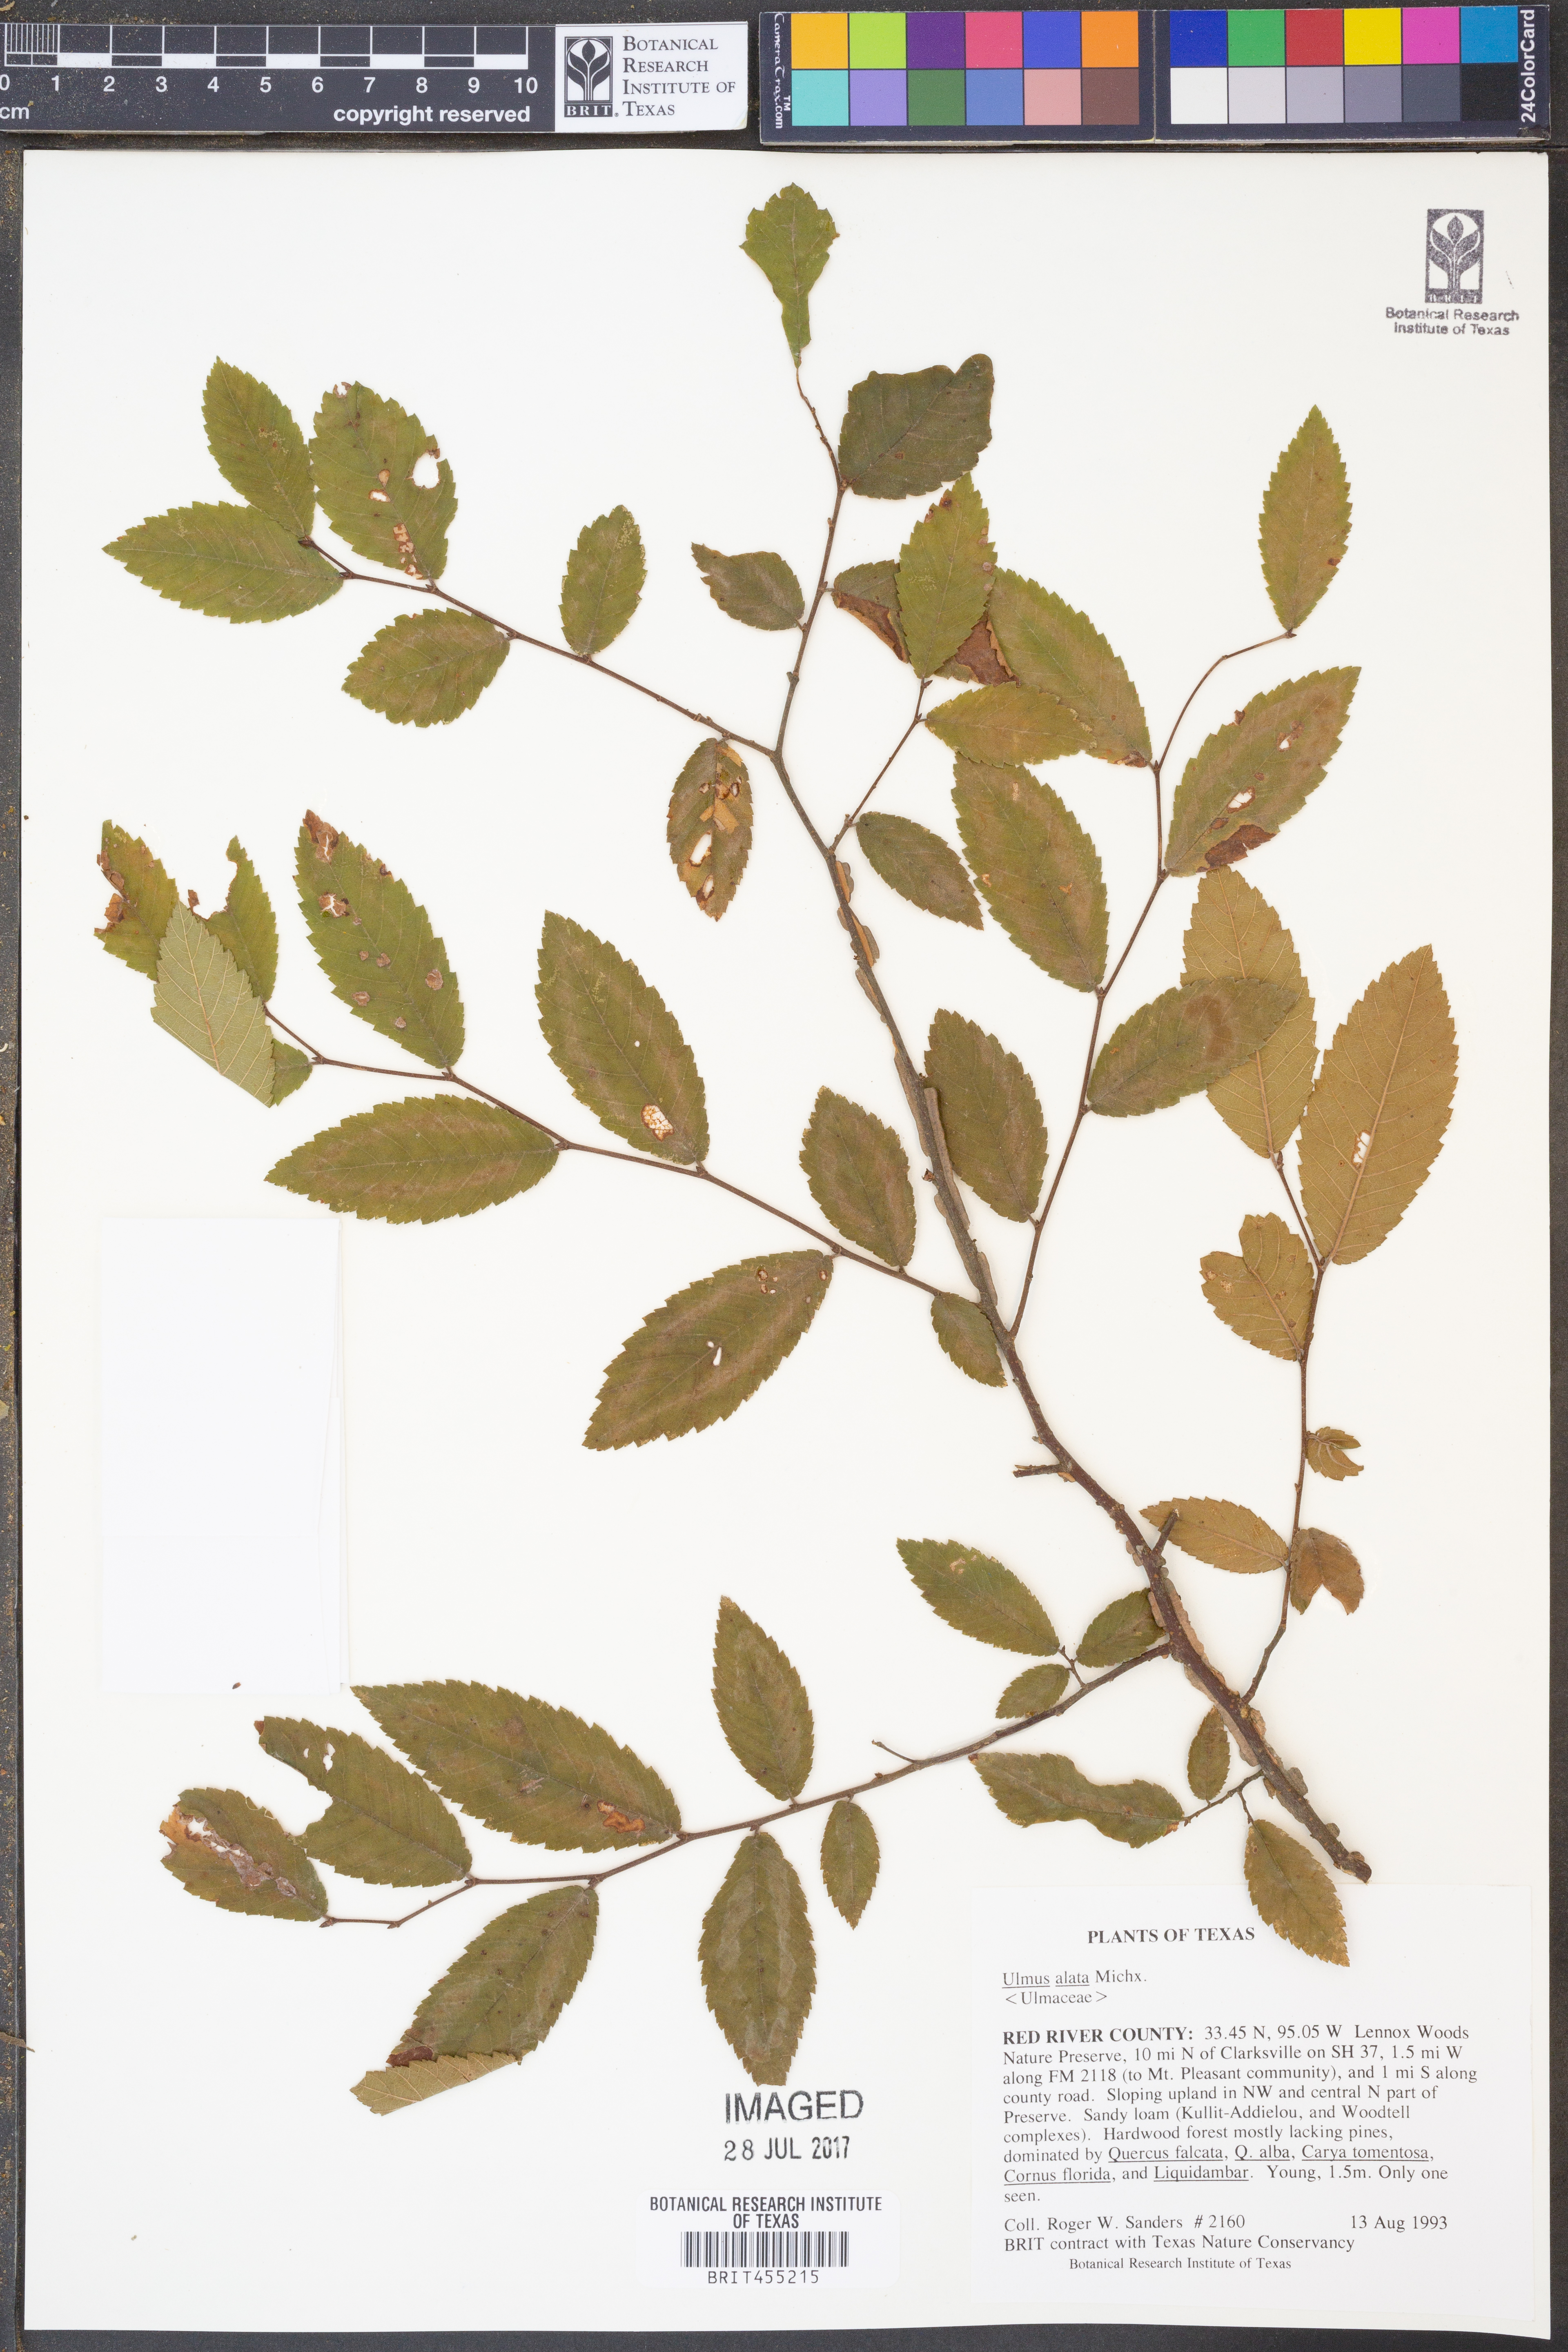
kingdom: Plantae
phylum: Tracheophyta
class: Magnoliopsida
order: Rosales
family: Ulmaceae
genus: Ulmus
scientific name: Ulmus alata
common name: Winged elm
